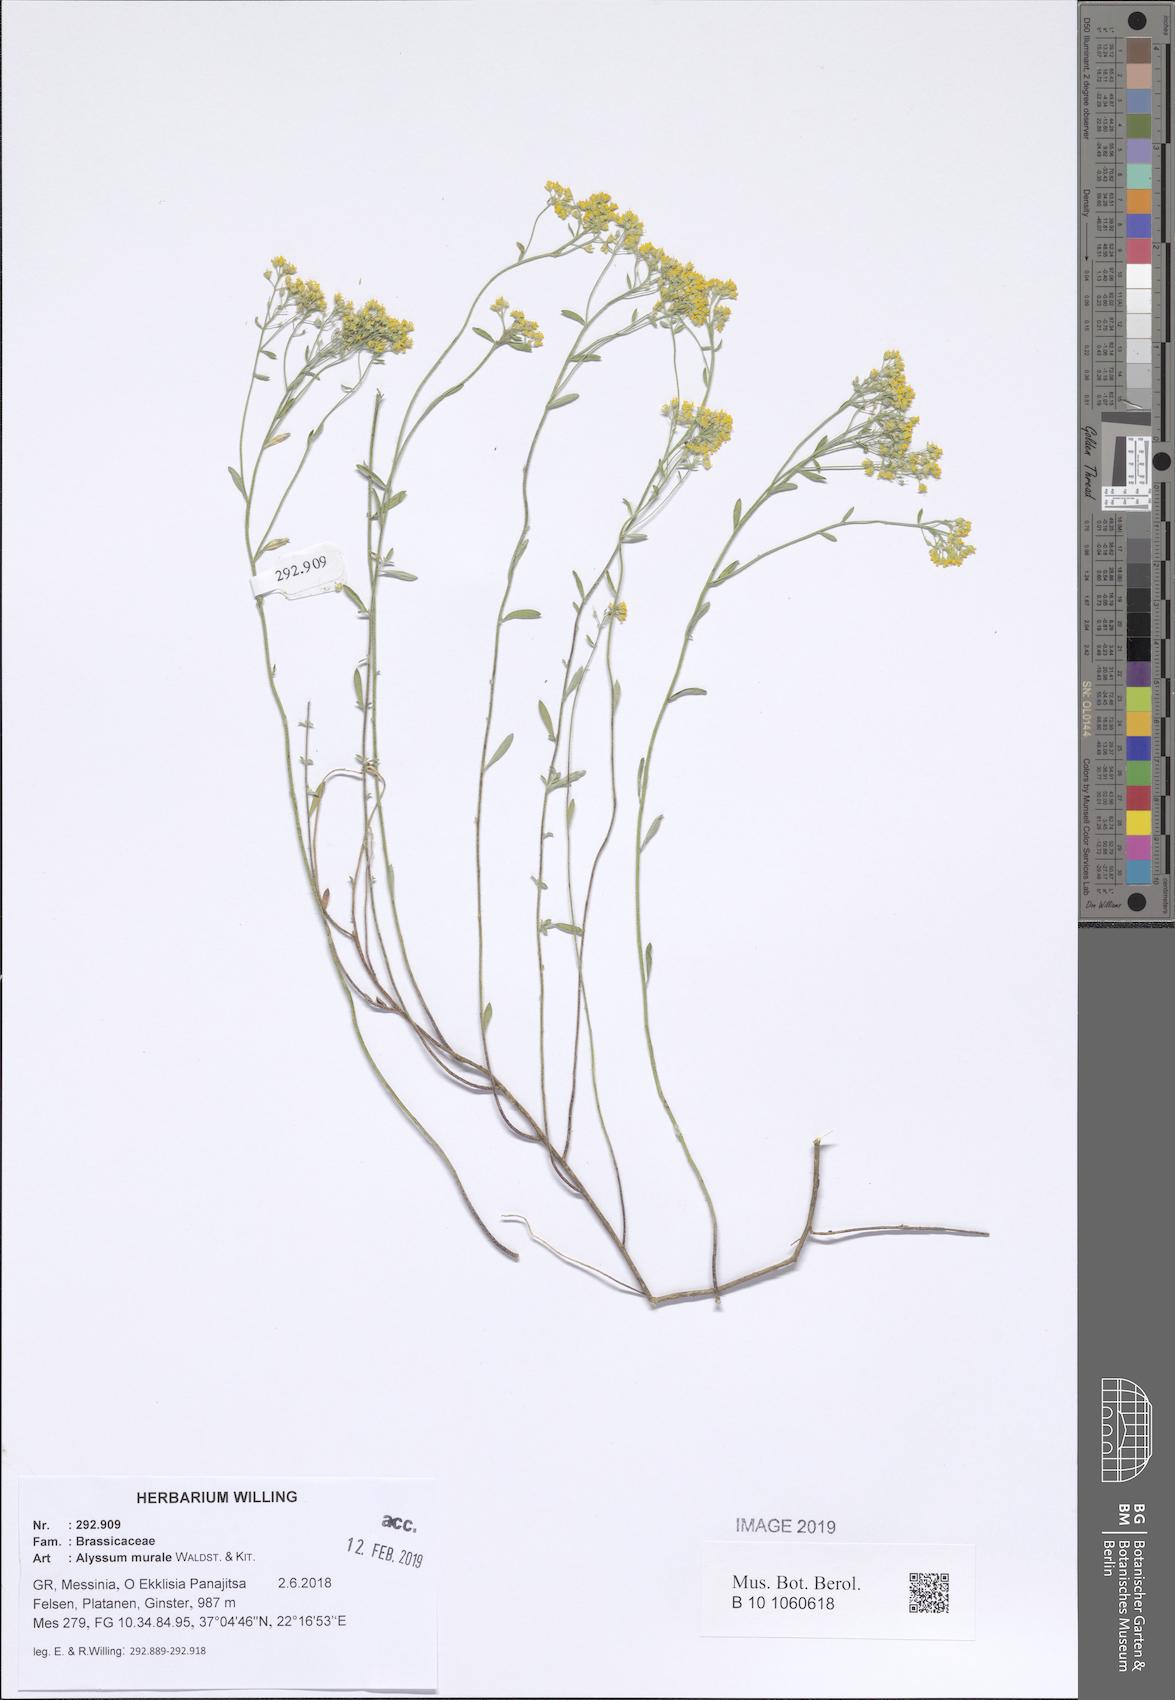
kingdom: Plantae
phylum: Tracheophyta
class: Magnoliopsida
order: Brassicales
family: Brassicaceae
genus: Odontarrhena
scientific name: Odontarrhena muralis
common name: Rock alyssum
